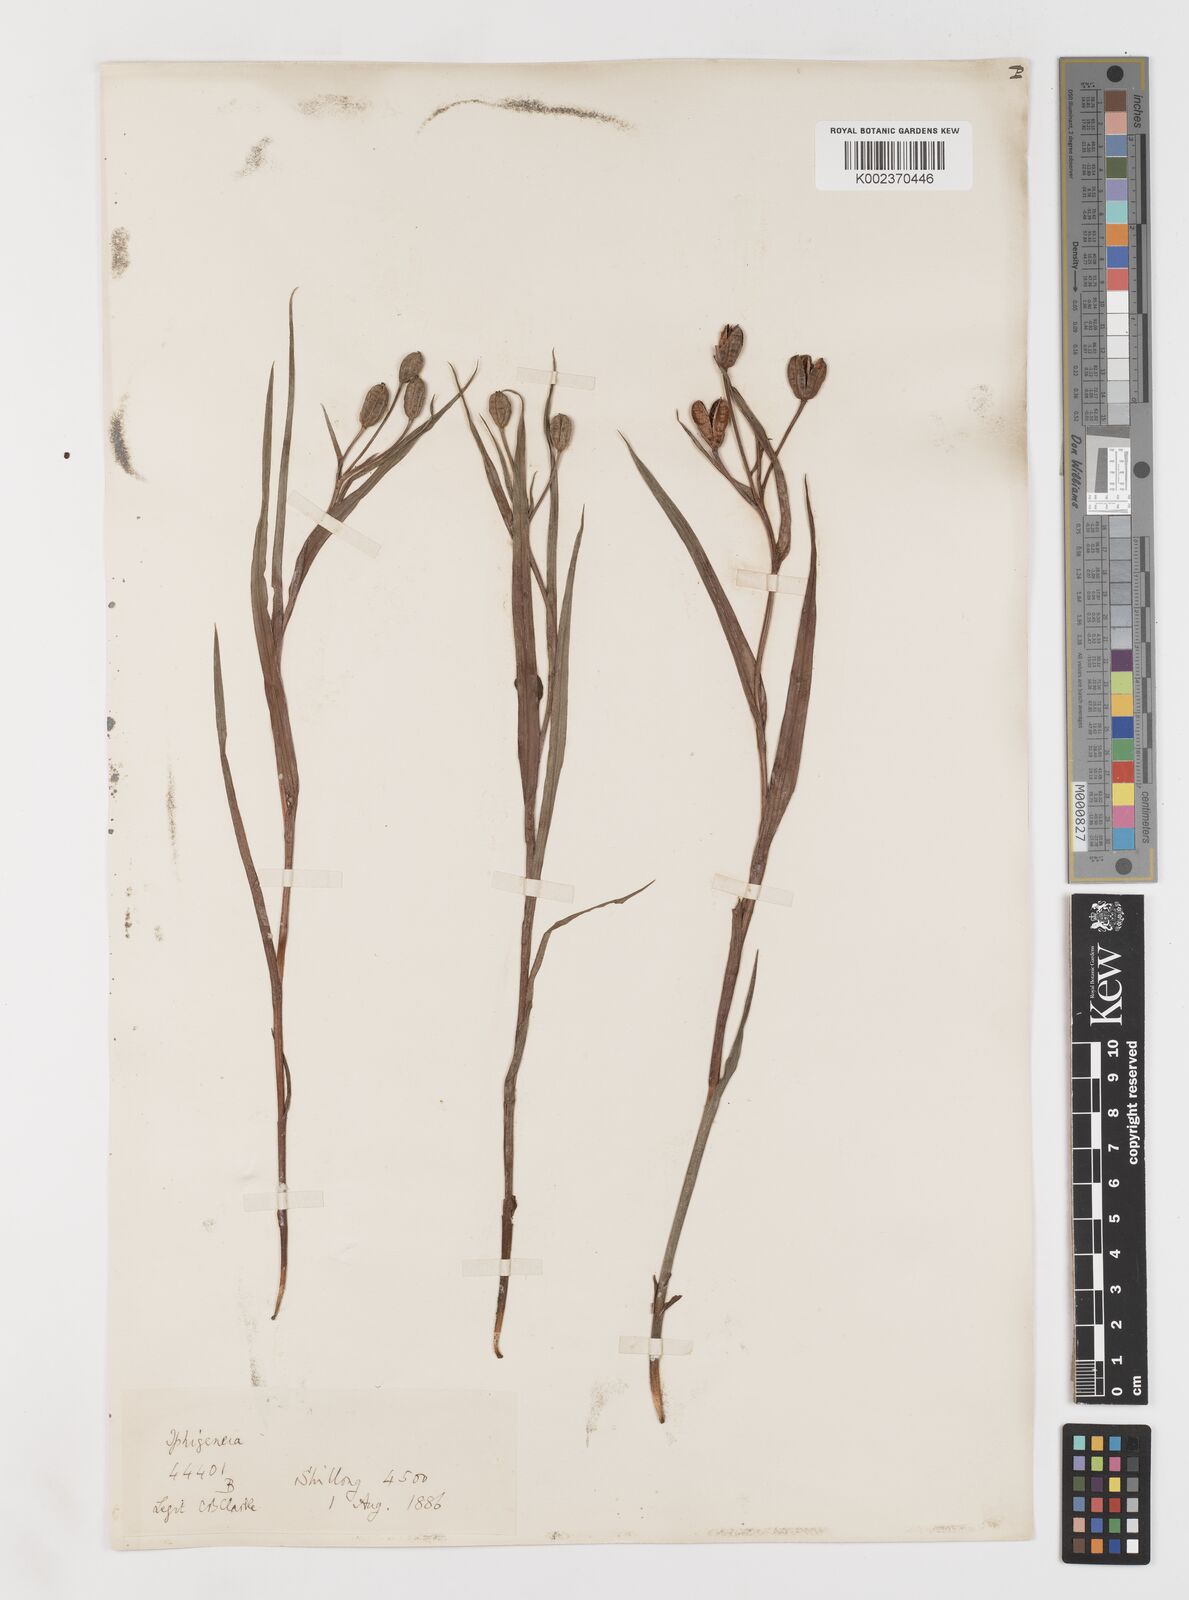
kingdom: Plantae
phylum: Tracheophyta
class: Liliopsida
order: Liliales
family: Colchicaceae
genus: Iphigenia
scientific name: Iphigenia indica
